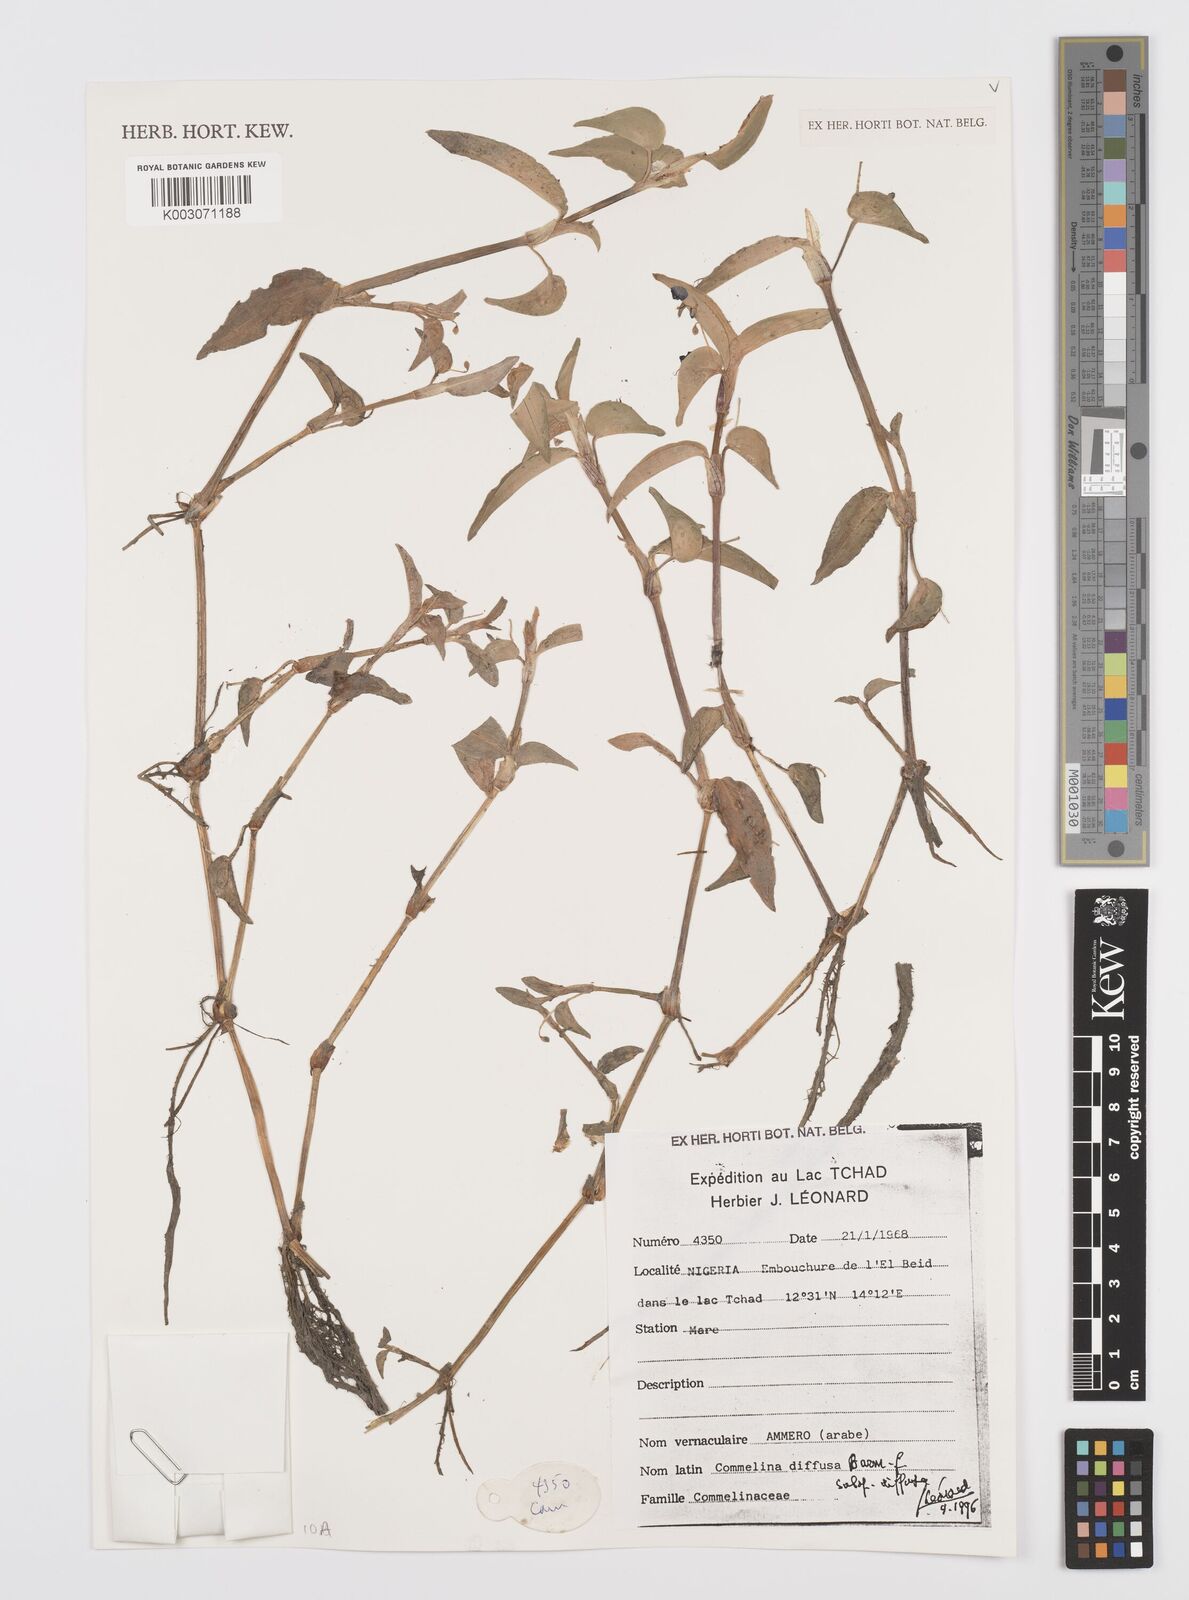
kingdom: Plantae
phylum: Tracheophyta
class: Liliopsida
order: Commelinales
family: Commelinaceae
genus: Commelina
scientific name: Commelina diffusa
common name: Climbing dayflower
